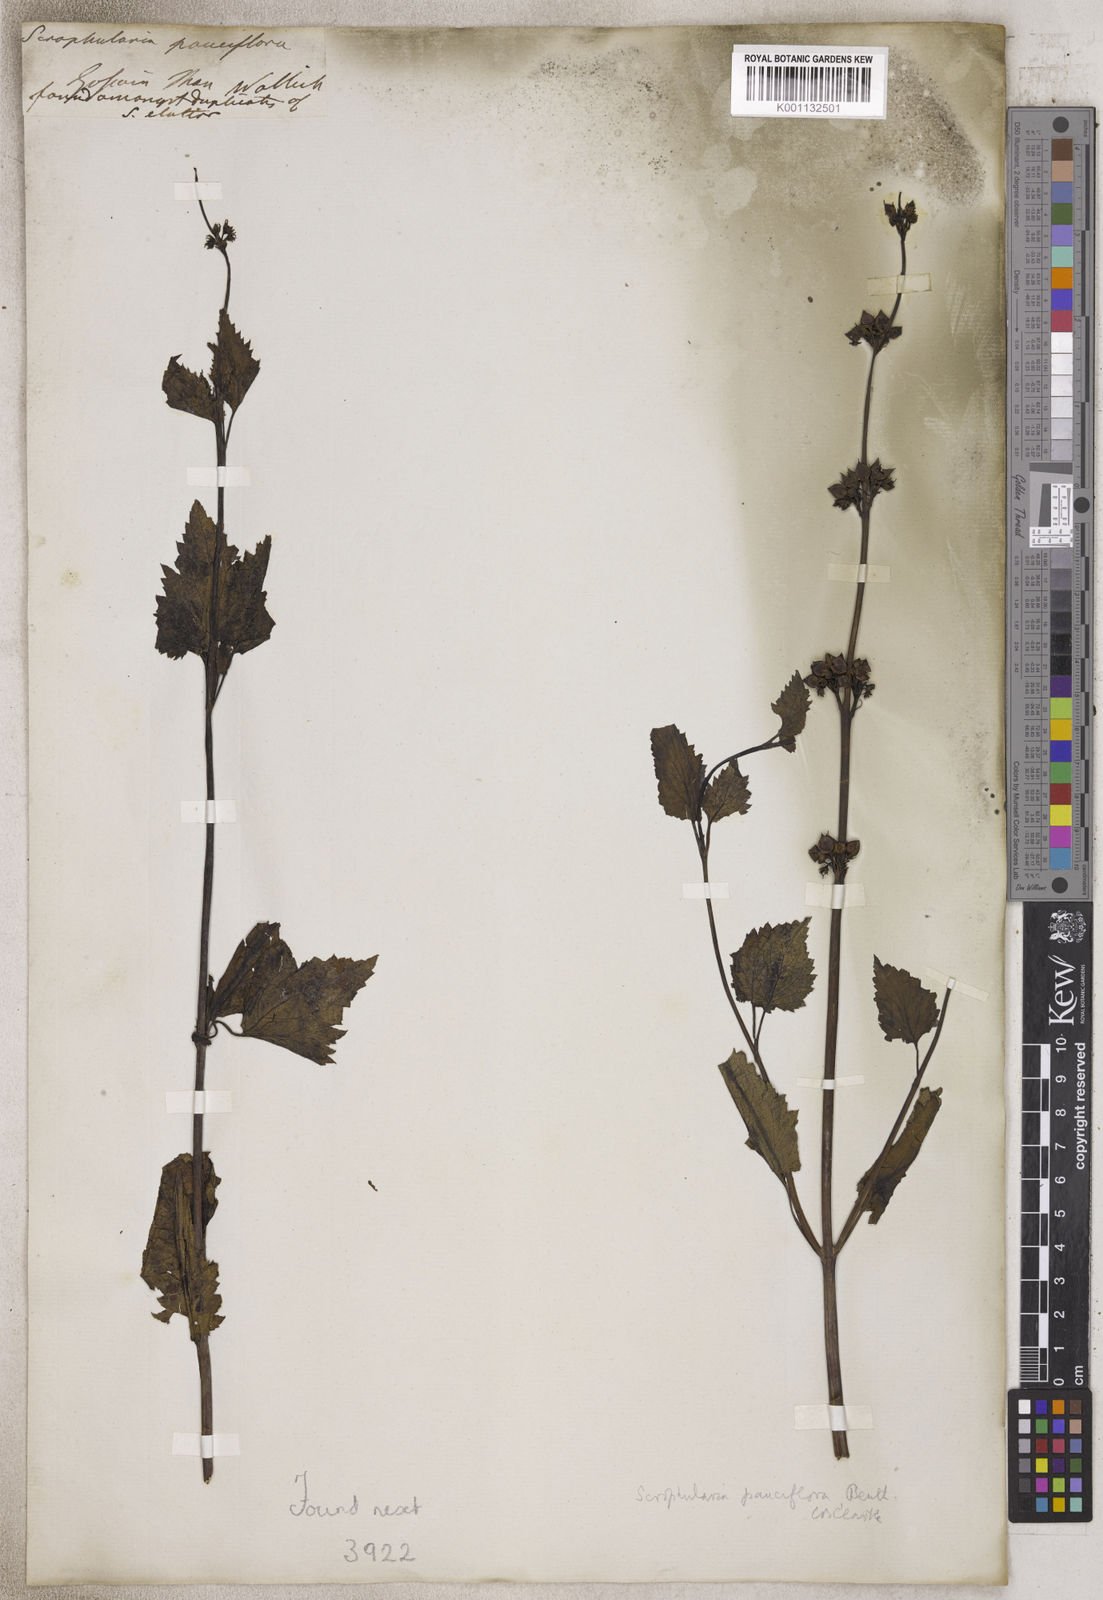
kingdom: Plantae
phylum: Tracheophyta
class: Magnoliopsida
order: Lamiales
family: Scrophulariaceae
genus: Scrophularia
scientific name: Scrophularia
